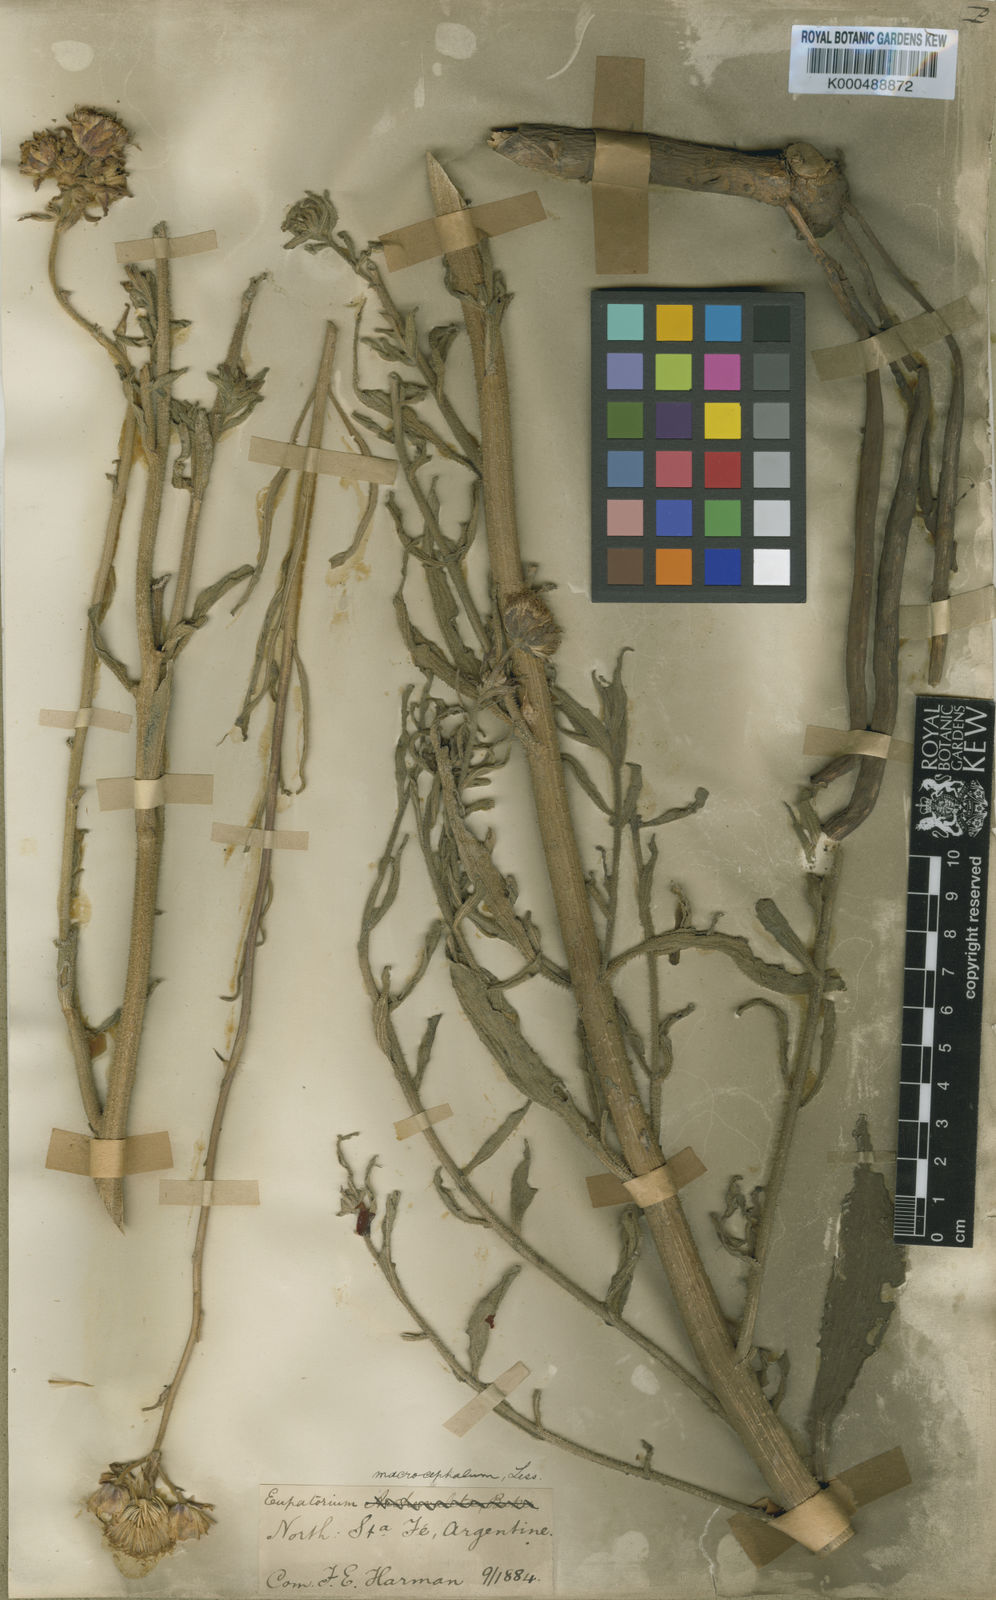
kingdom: Plantae
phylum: Tracheophyta
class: Magnoliopsida
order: Asterales
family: Asteraceae
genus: Campuloclinium
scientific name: Campuloclinium macrocephalum
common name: Pompomweed
